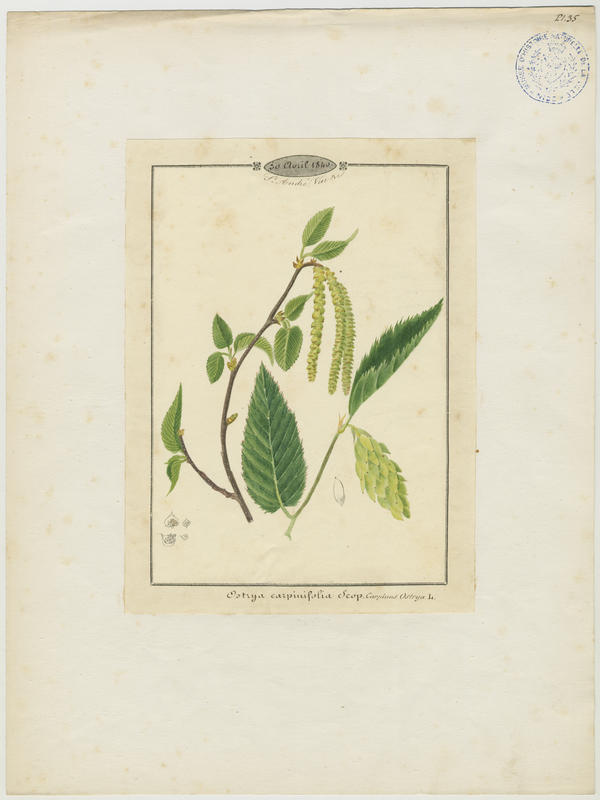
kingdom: Plantae
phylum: Tracheophyta
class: Magnoliopsida
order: Fagales
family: Betulaceae
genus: Ostrya
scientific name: Ostrya carpinifolia
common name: European hop-hornbeam
